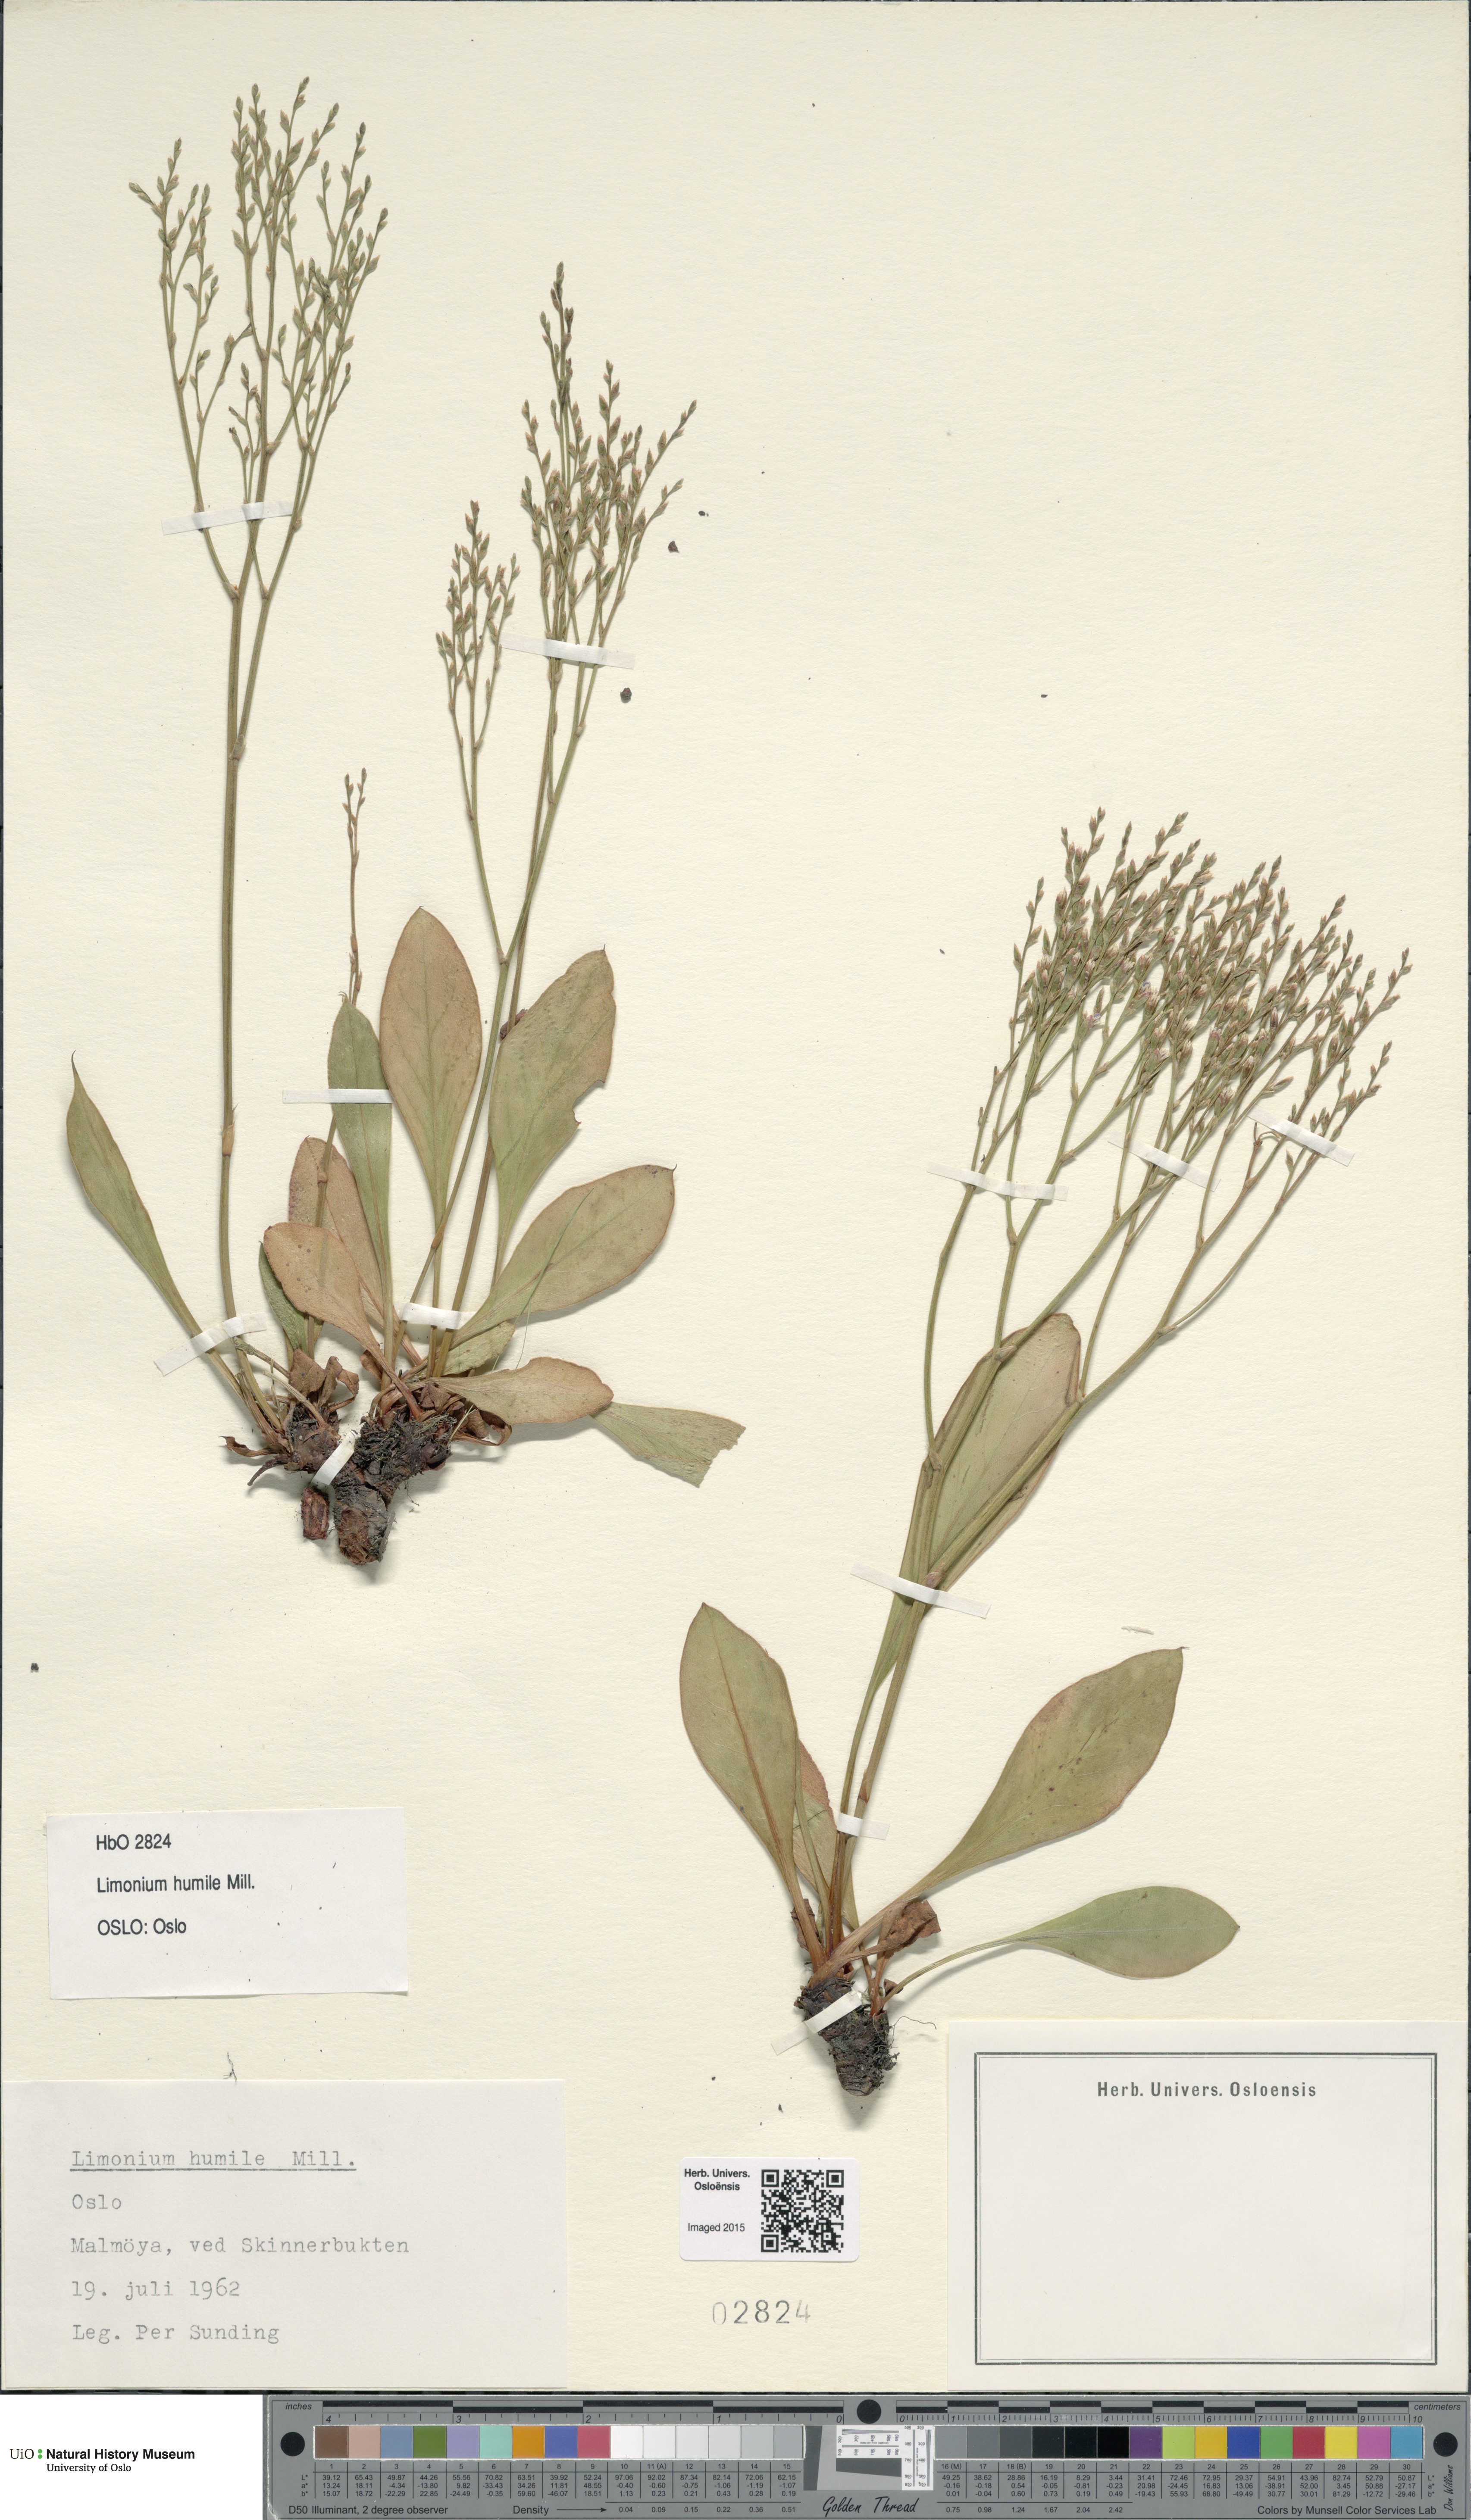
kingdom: Plantae
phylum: Tracheophyta
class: Magnoliopsida
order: Caryophyllales
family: Plumbaginaceae
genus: Limonium
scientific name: Limonium humile
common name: Lax-flowered sea-lavender
